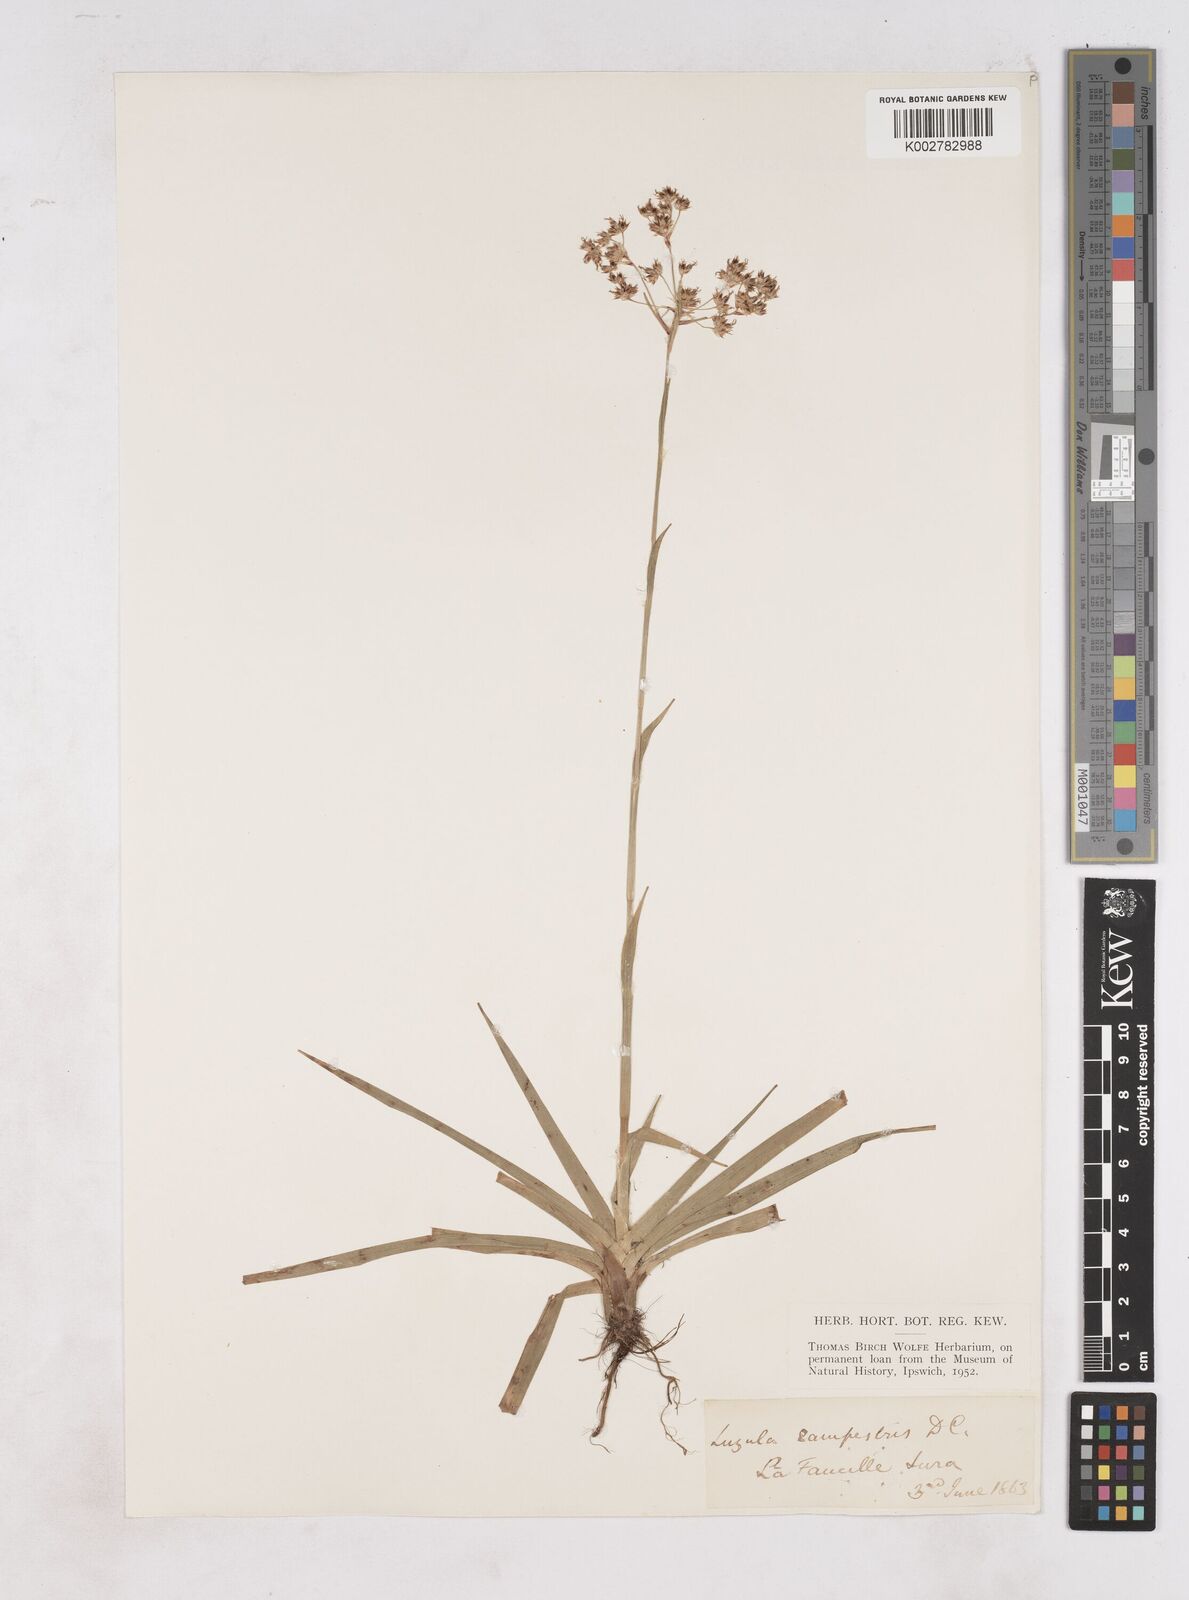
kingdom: Plantae
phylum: Tracheophyta
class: Liliopsida
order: Poales
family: Juncaceae
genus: Luzula
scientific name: Luzula campestris
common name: Field wood-rush
